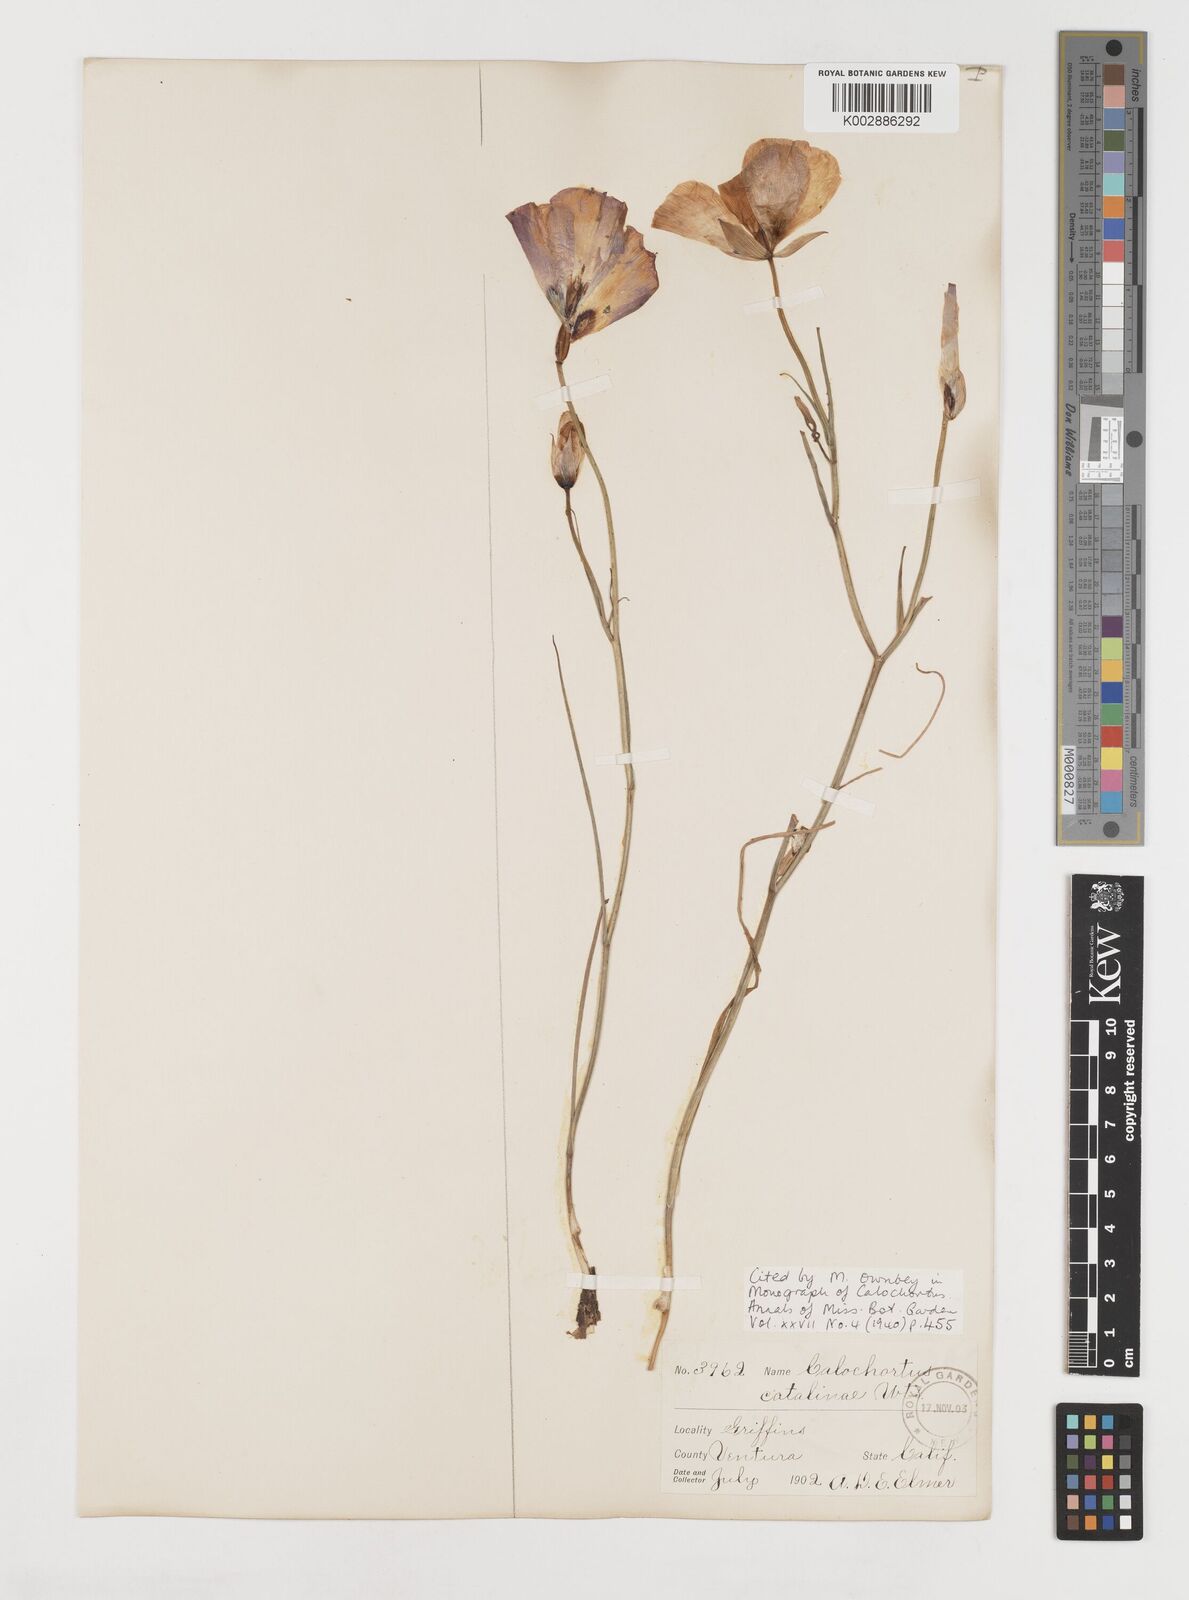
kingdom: Plantae
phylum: Tracheophyta
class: Liliopsida
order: Liliales
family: Liliaceae
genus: Calochortus
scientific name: Calochortus catalinae
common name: Catalina mariposa-lily
